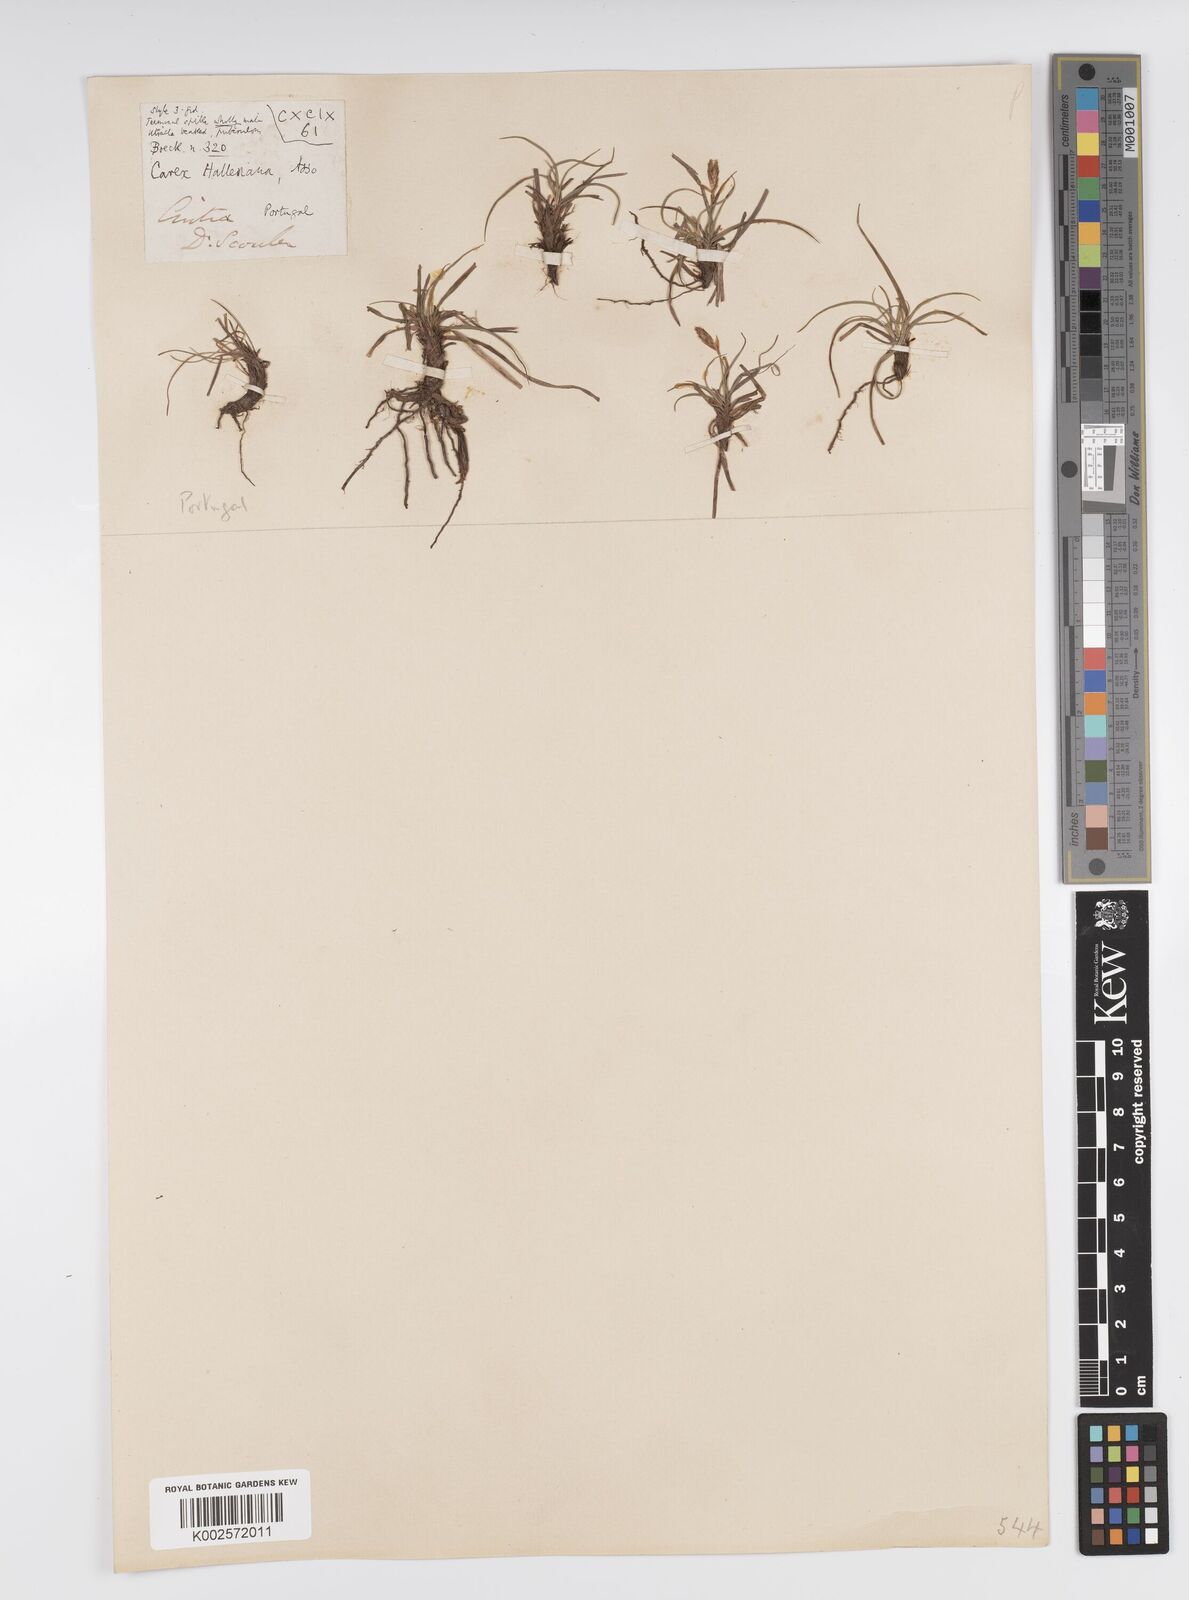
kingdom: Plantae
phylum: Tracheophyta
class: Liliopsida
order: Poales
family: Cyperaceae
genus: Carex
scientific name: Carex halleriana
